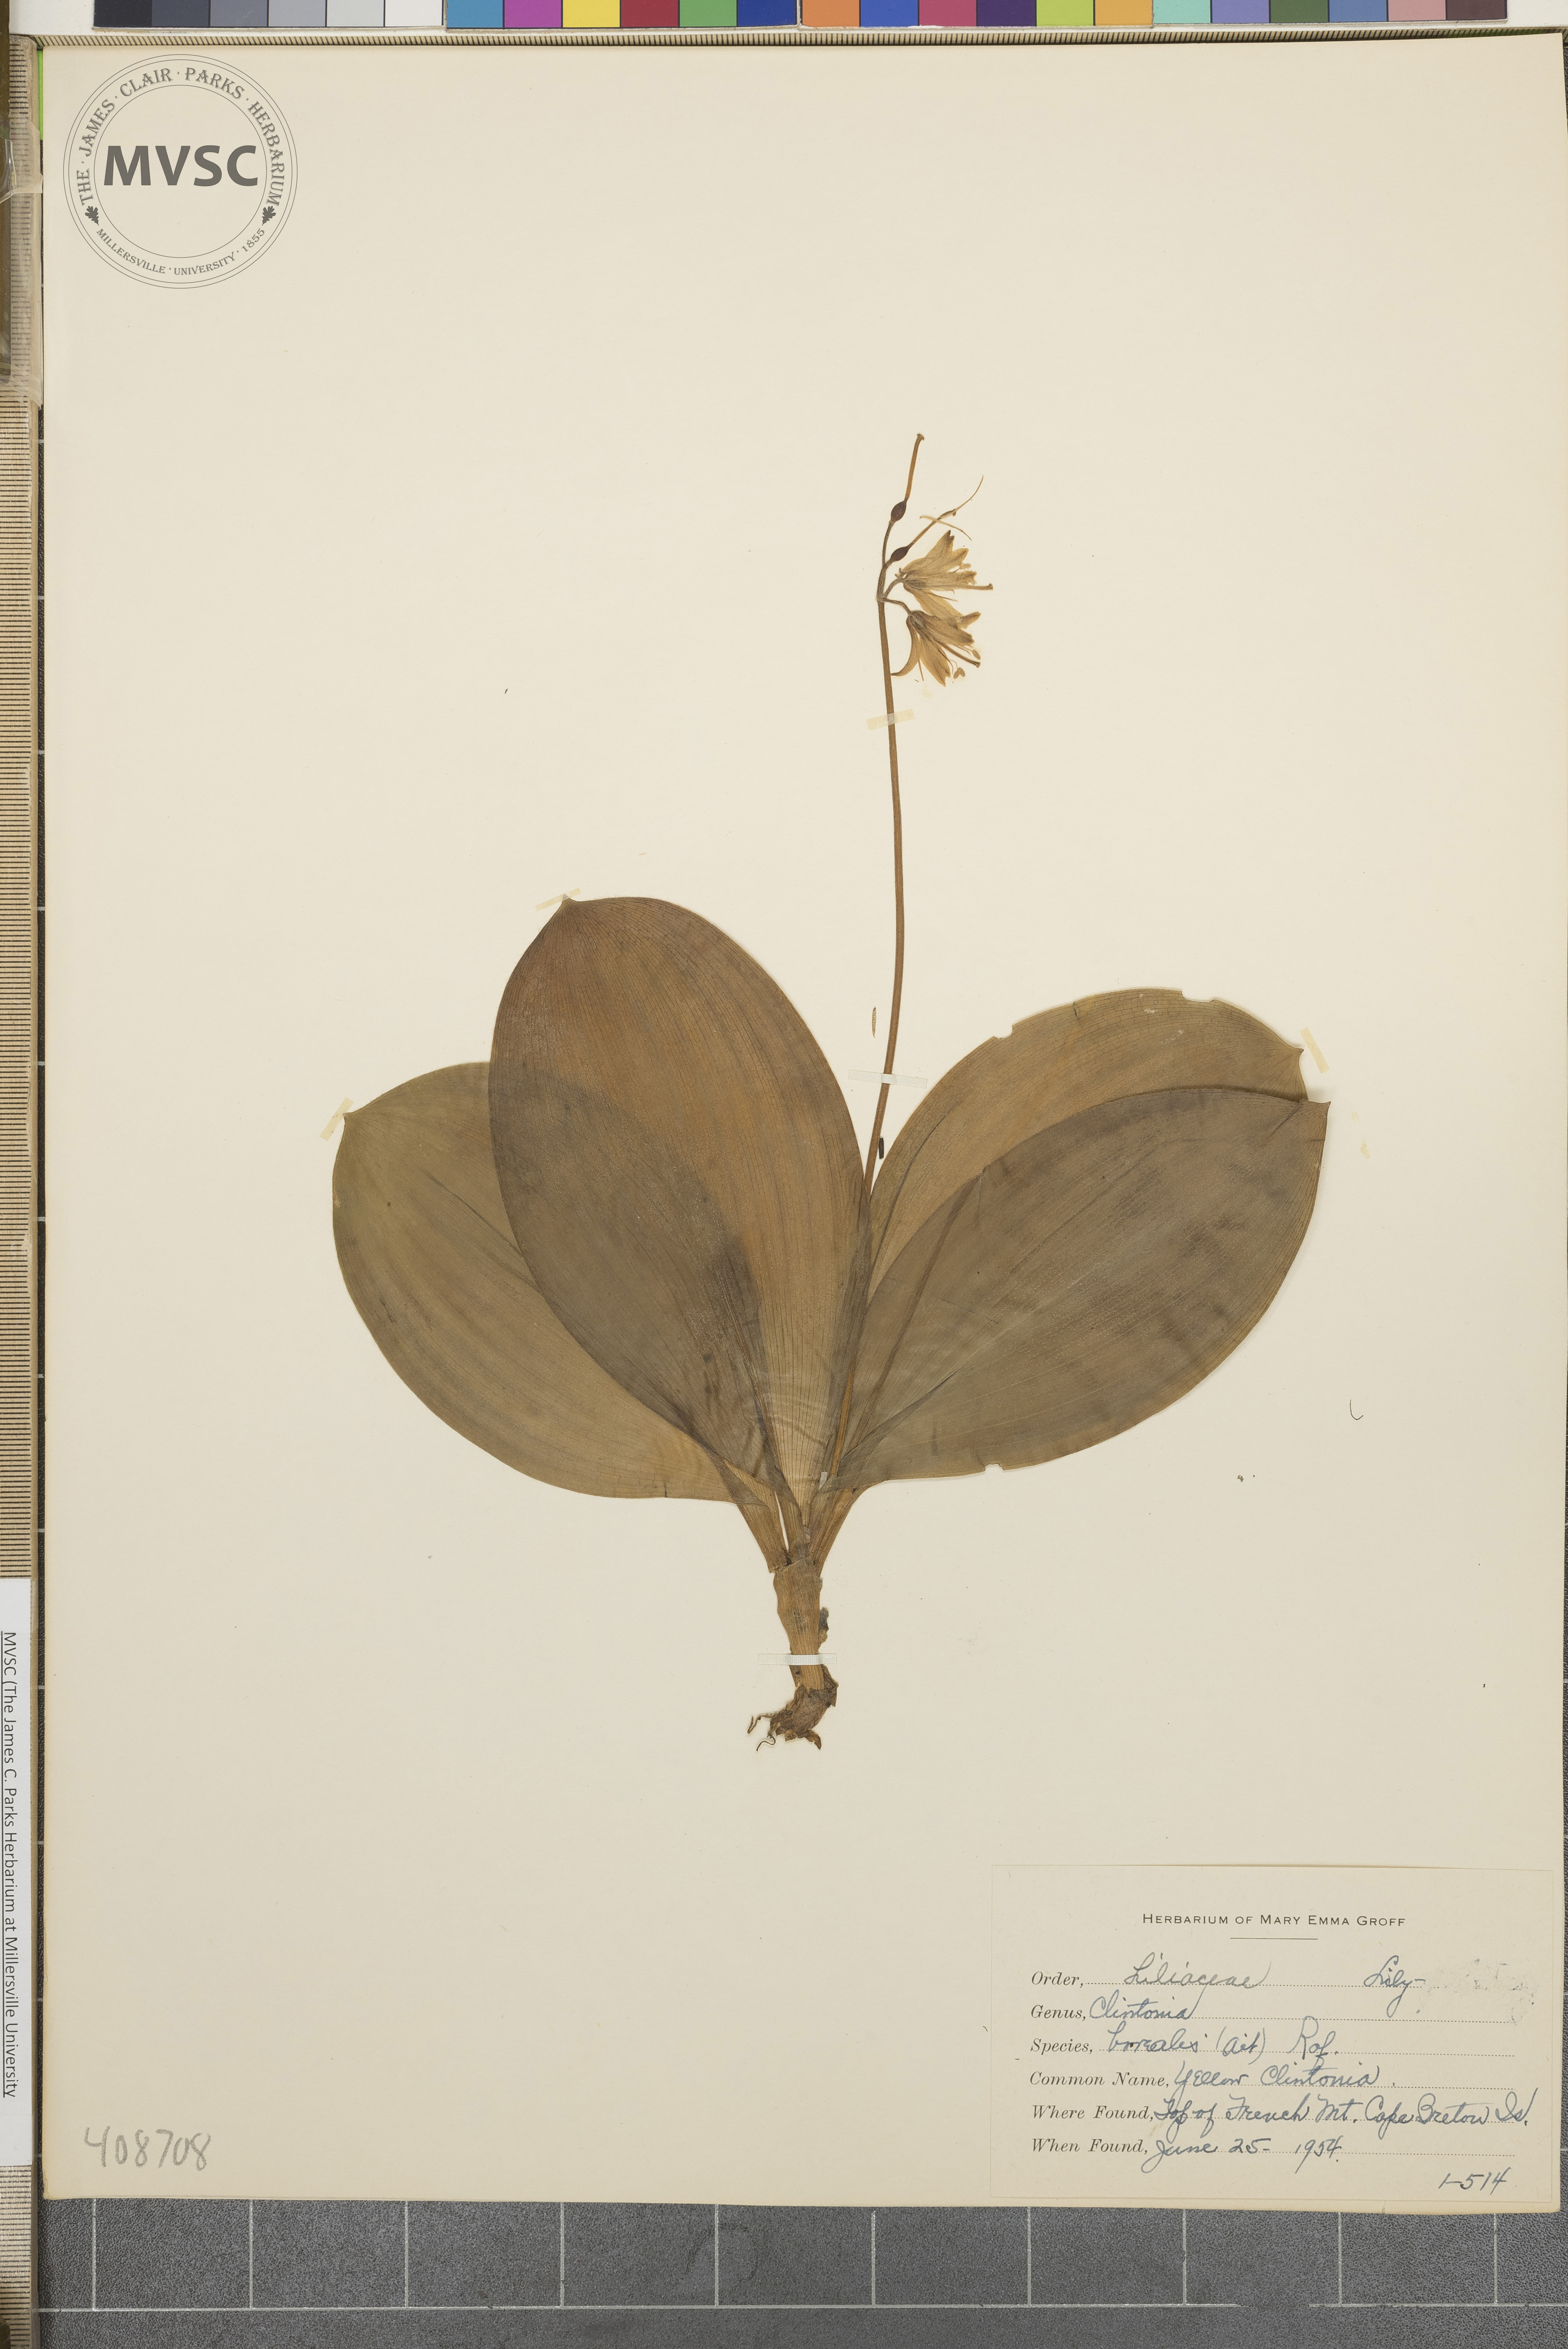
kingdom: Plantae
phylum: Tracheophyta
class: Liliopsida
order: Liliales
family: Liliaceae
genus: Clintonia
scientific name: Clintonia borealis
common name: Yellow Clintonia
